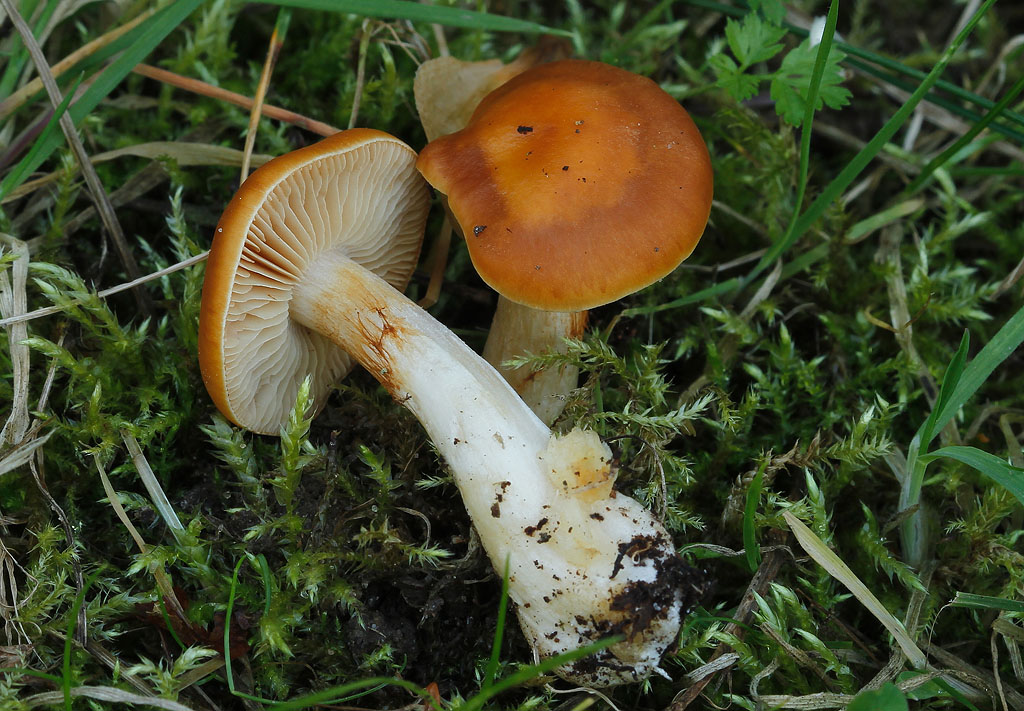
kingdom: Fungi
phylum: Basidiomycota
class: Agaricomycetes
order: Agaricales
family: Cortinariaceae
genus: Thaxterogaster
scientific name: Thaxterogaster
